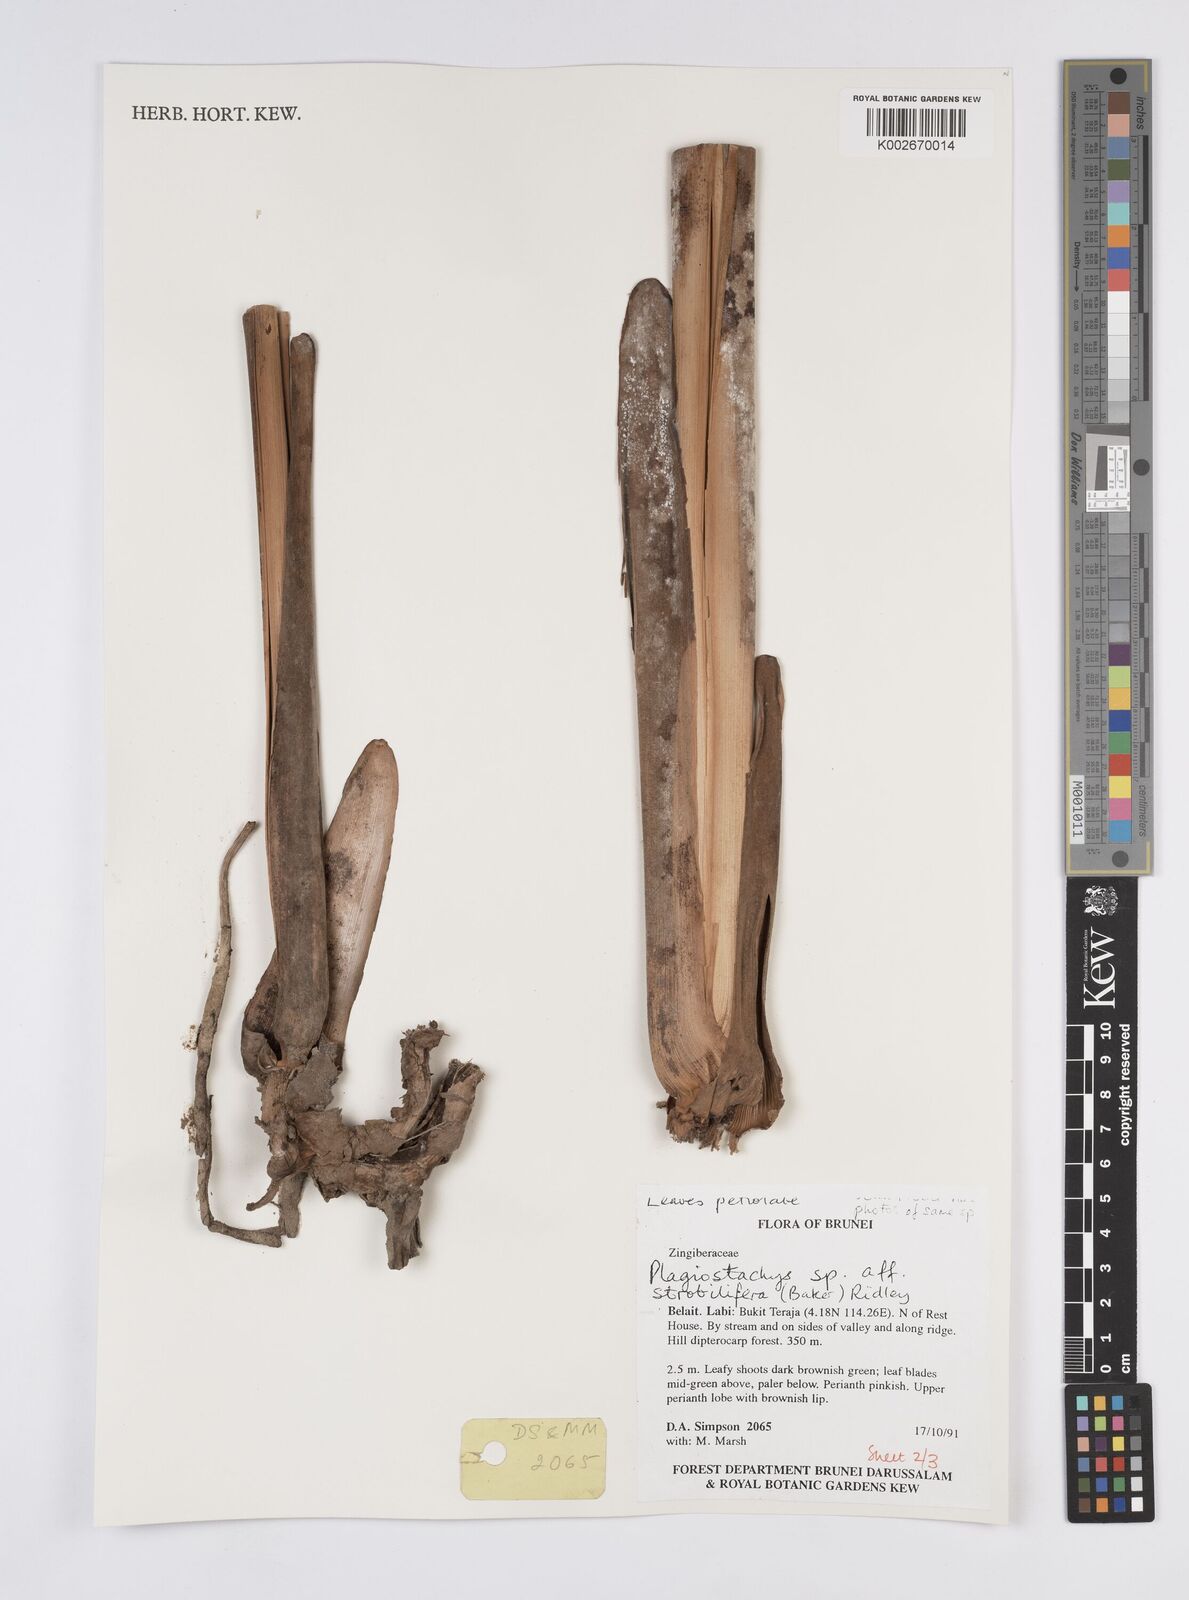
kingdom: Plantae
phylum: Tracheophyta
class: Liliopsida
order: Zingiberales
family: Zingiberaceae
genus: Plagiostachys
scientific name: Plagiostachys strobilifera
